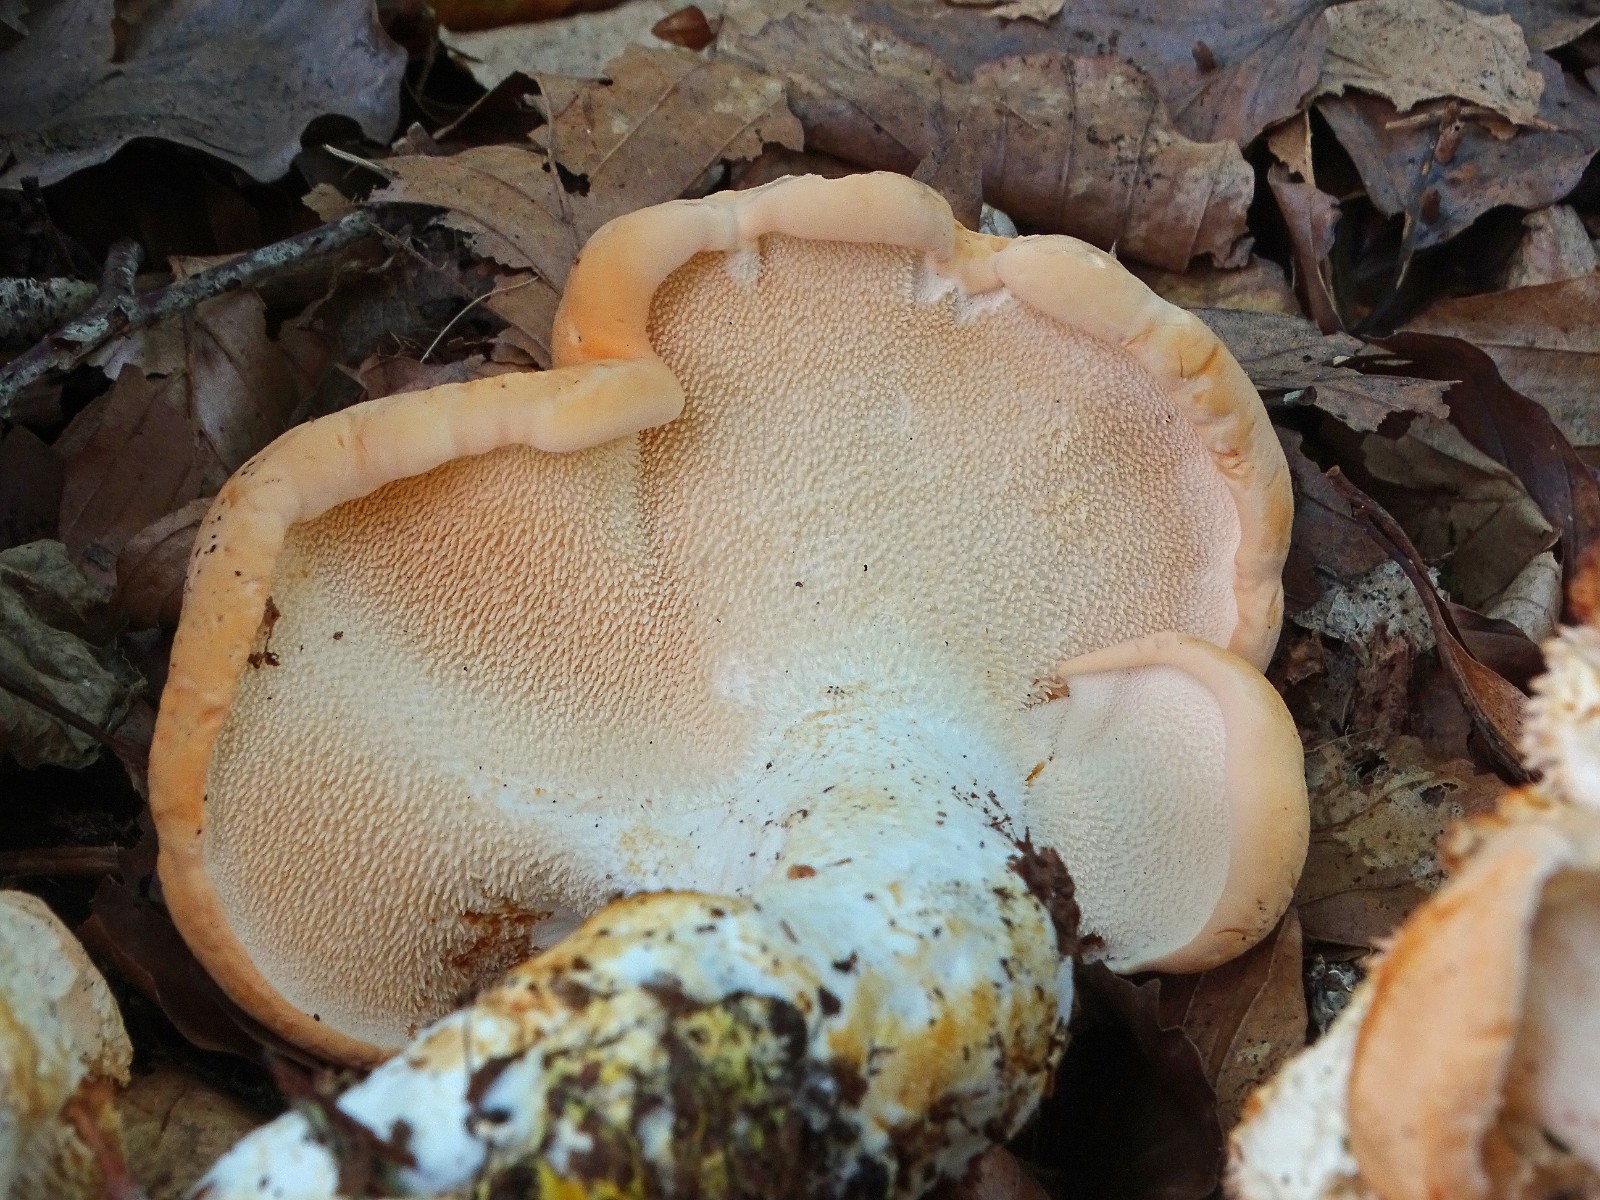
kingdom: Fungi
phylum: Basidiomycota
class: Agaricomycetes
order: Cantharellales
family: Hydnaceae
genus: Hydnum
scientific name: Hydnum repandum
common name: almindelig pigsvamp
